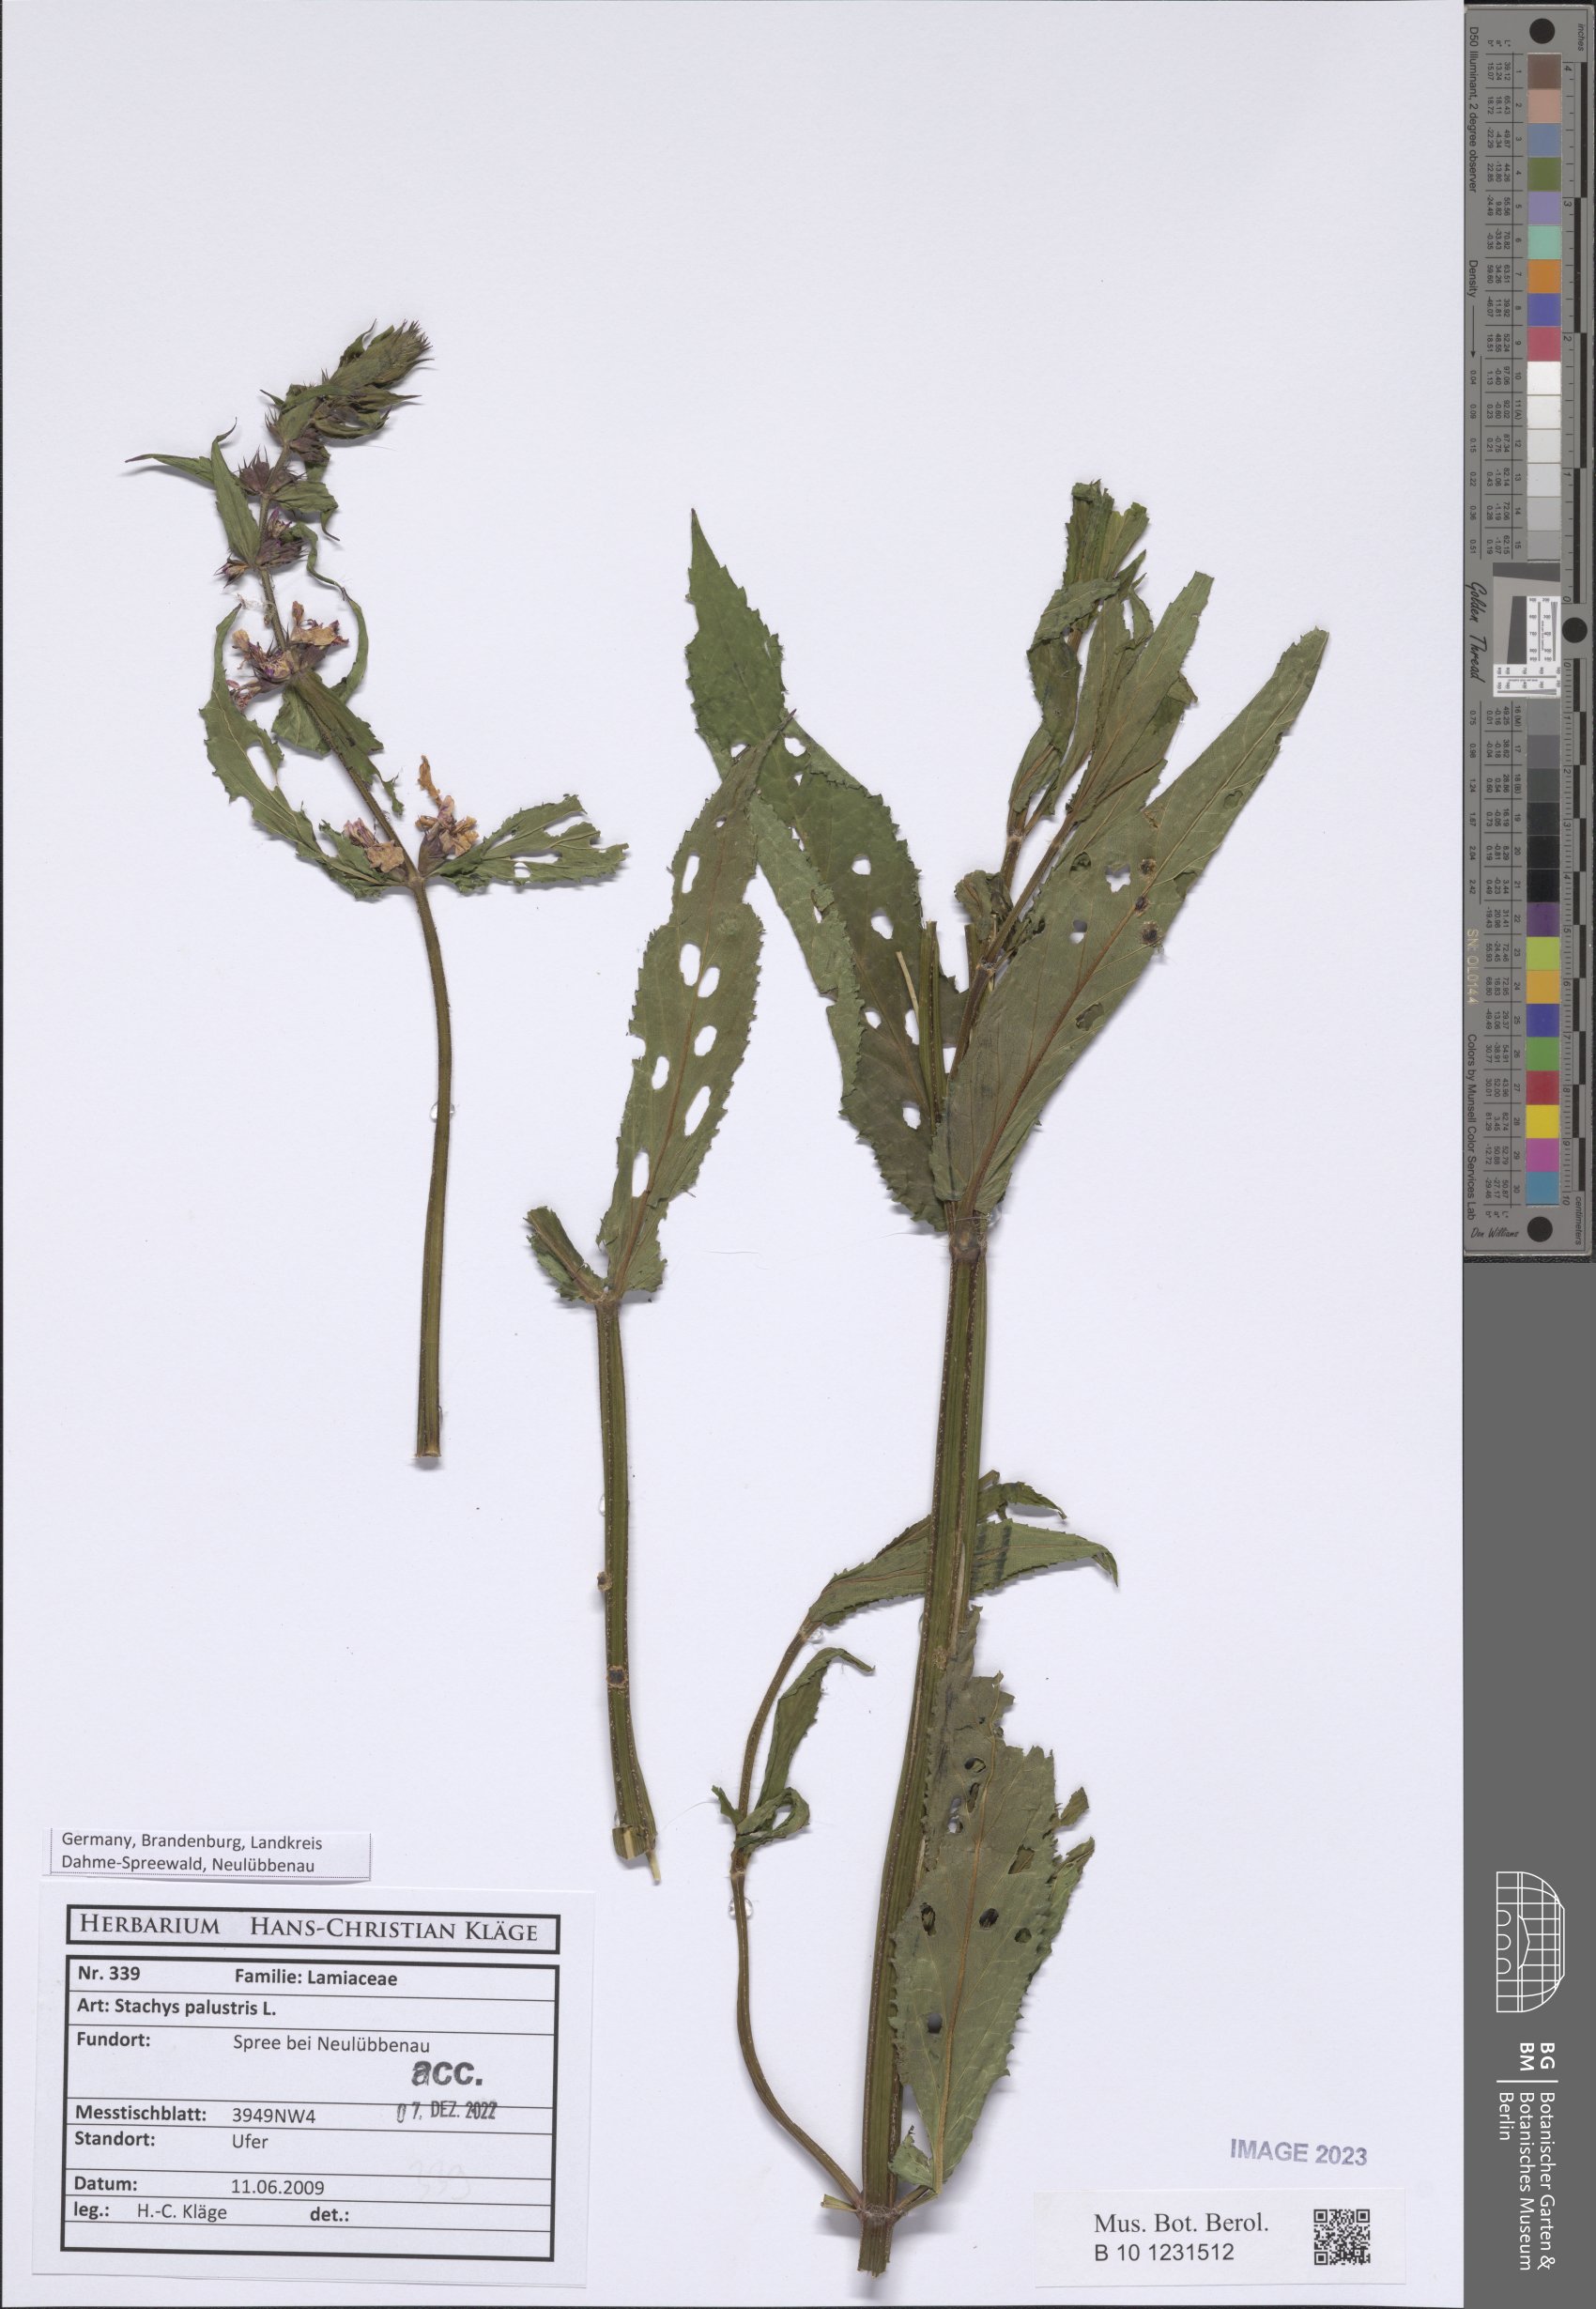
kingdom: Plantae
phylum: Tracheophyta
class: Magnoliopsida
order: Lamiales
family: Lamiaceae
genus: Stachys
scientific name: Stachys palustris
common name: Marsh woundwort
